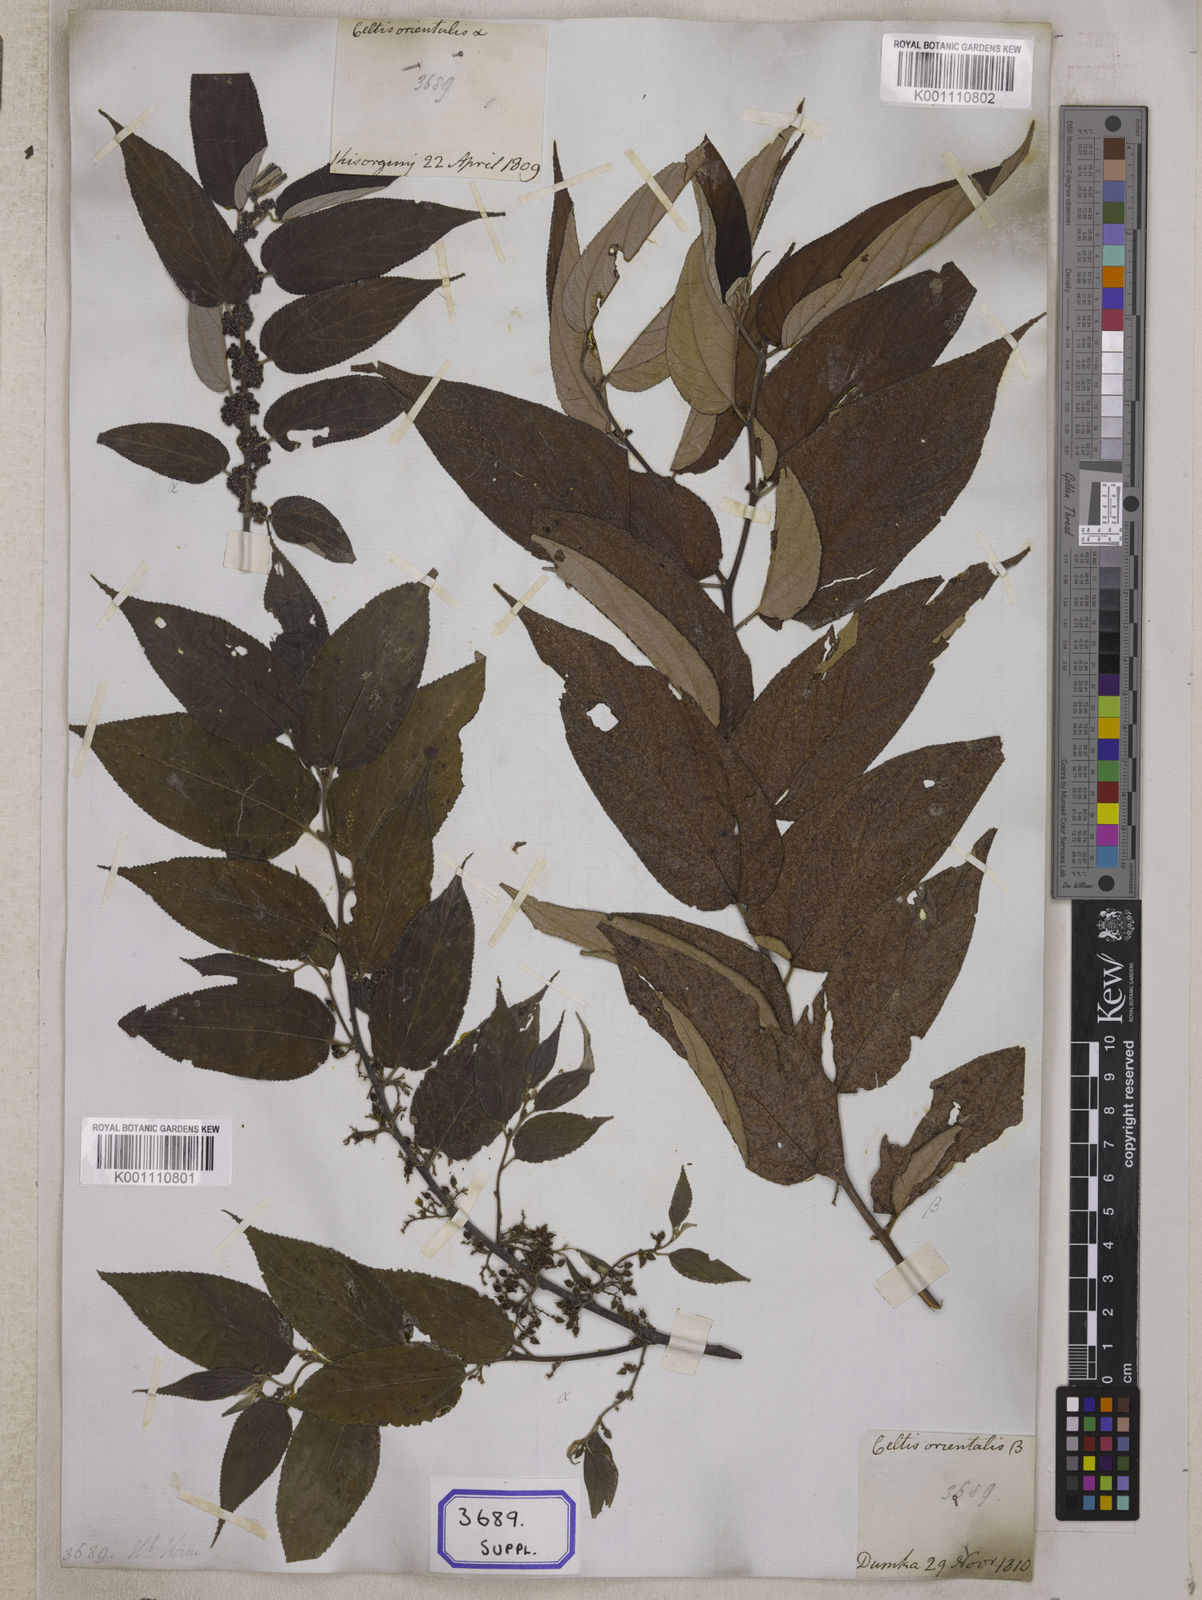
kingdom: Plantae
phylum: Tracheophyta
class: Magnoliopsida
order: Rosales
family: Cannabaceae
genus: Trema
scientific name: Trema orientale
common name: Indian charcoal tree
